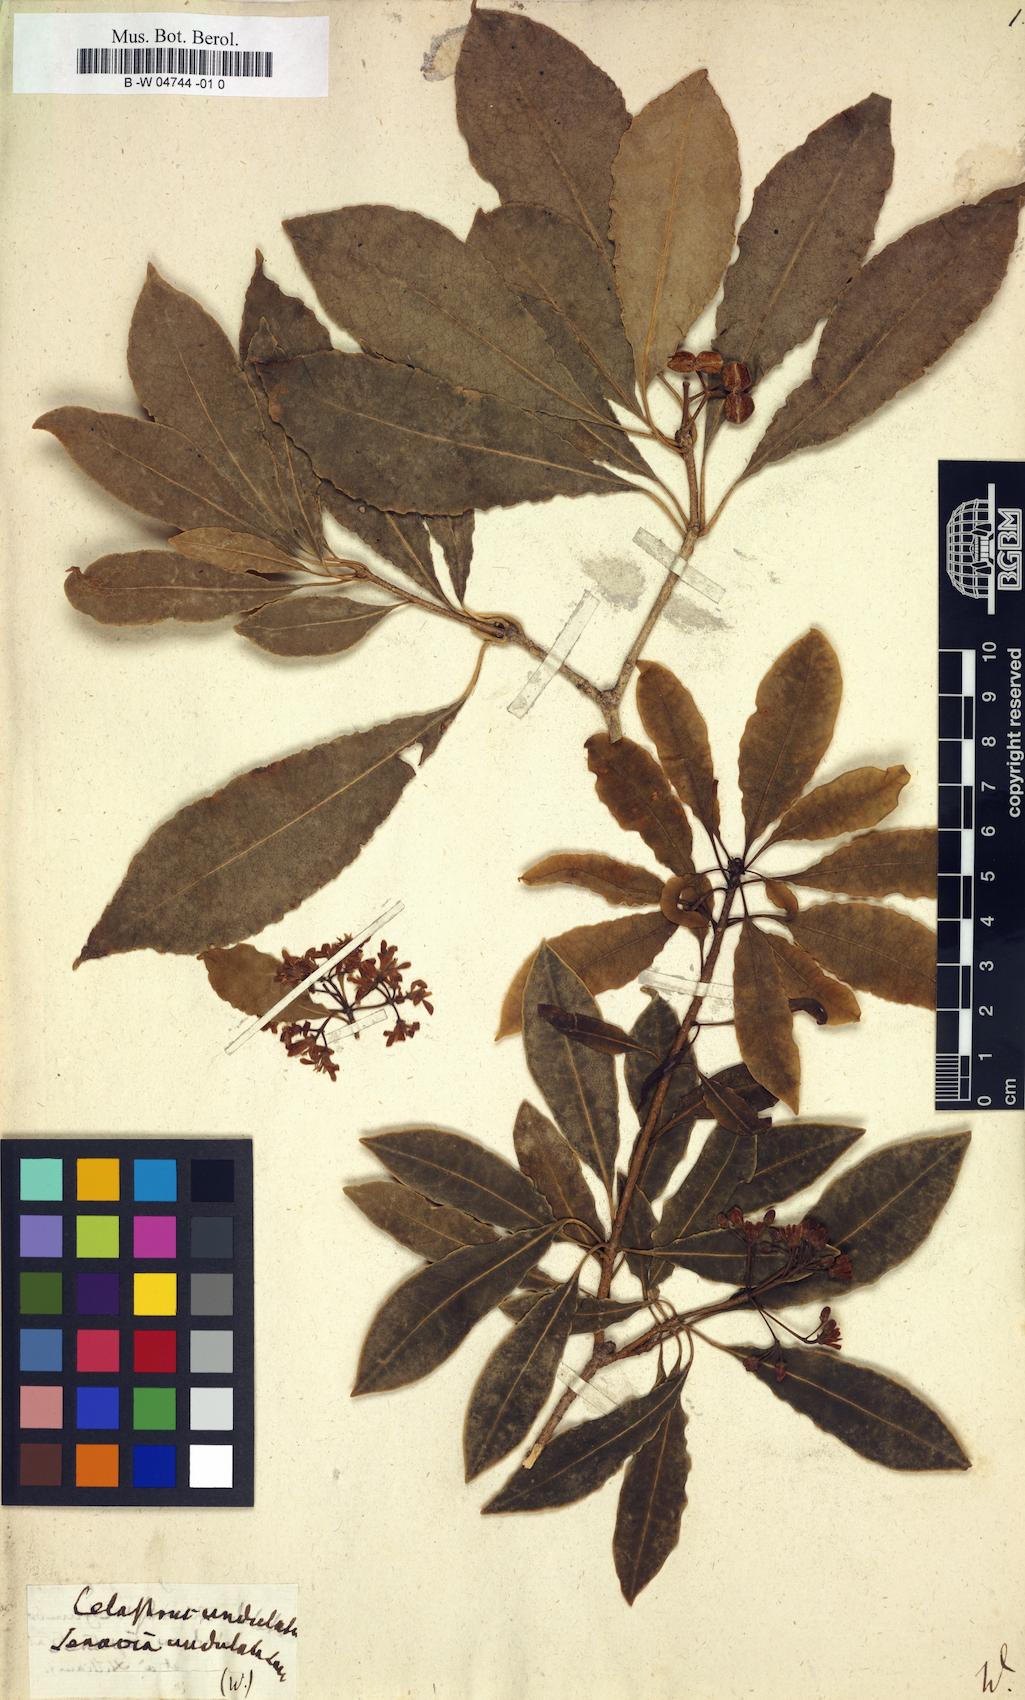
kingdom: Plantae
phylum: Tracheophyta
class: Magnoliopsida
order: Celastrales
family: Celastraceae
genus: Gymnosporia
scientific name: Gymnosporia undata
